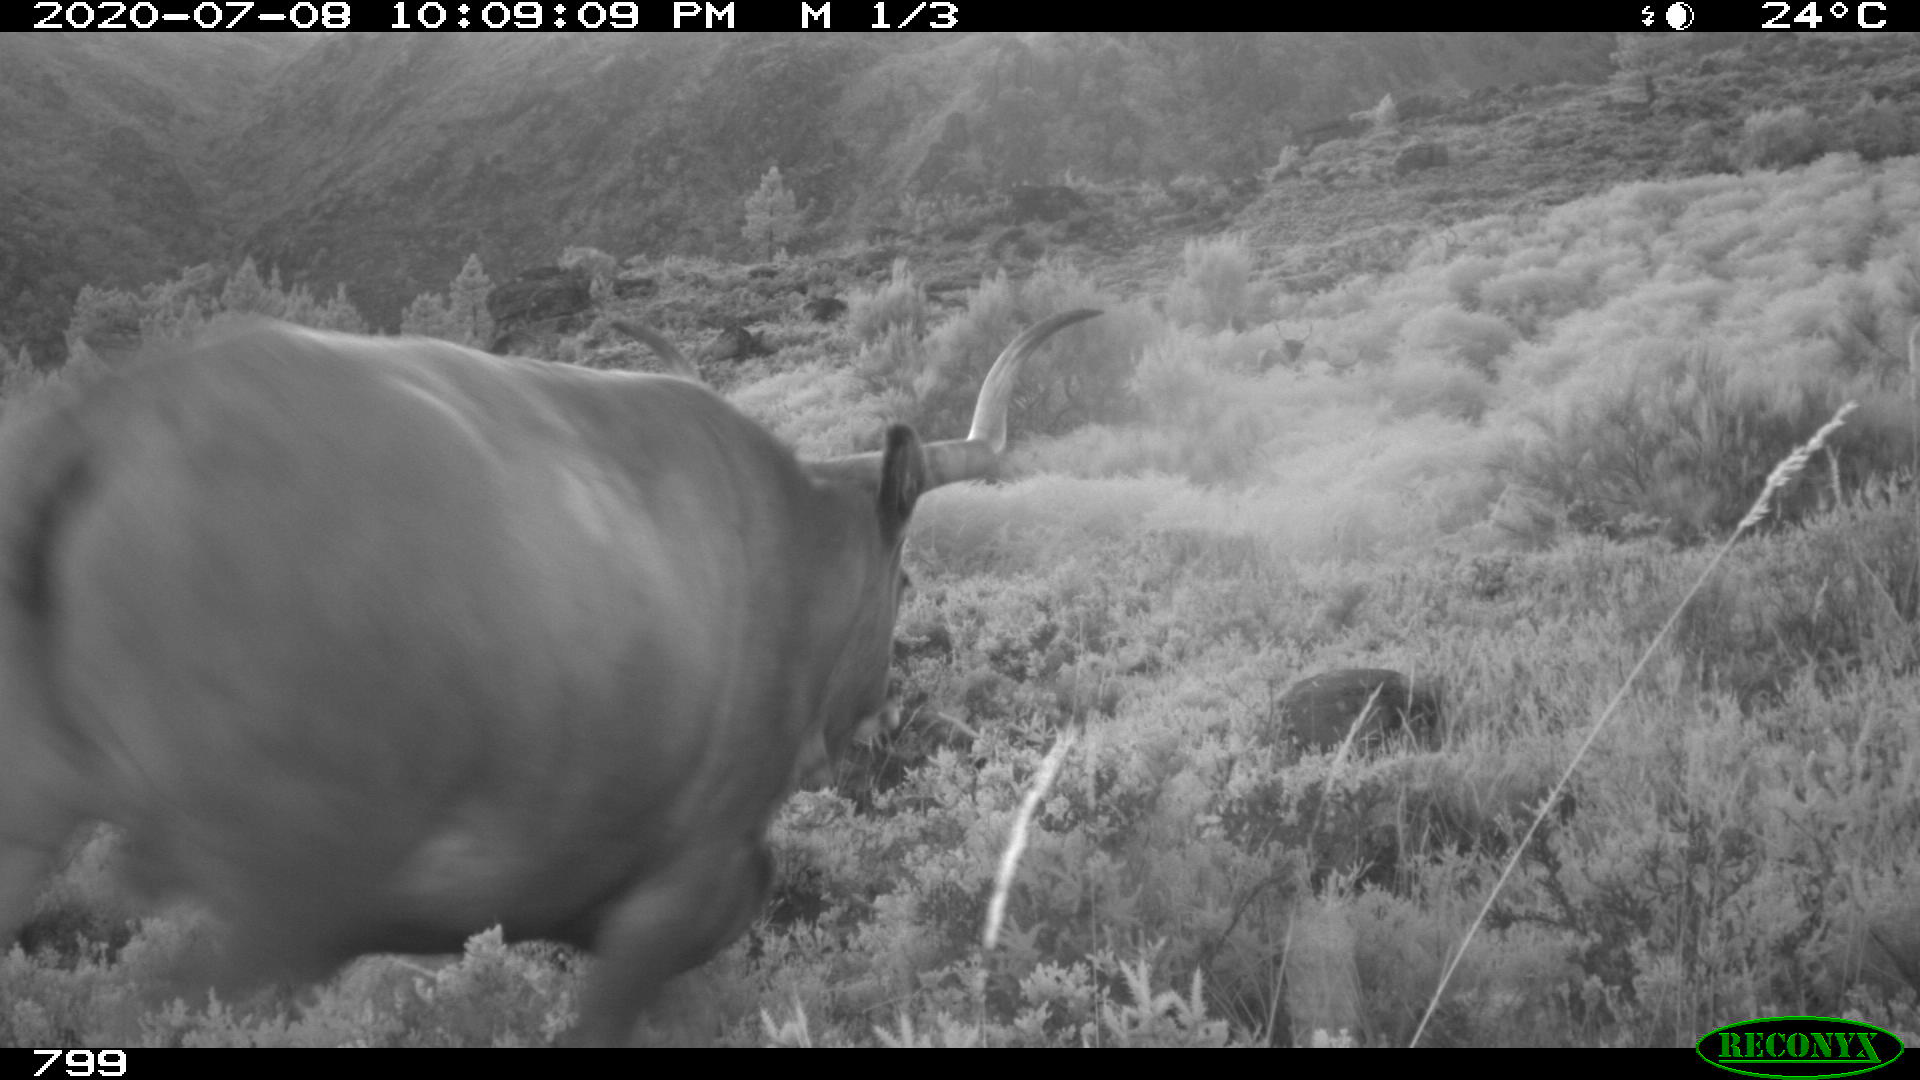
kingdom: Animalia
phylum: Chordata
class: Mammalia
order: Artiodactyla
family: Bovidae
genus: Bos
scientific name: Bos taurus
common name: Domesticated cattle
